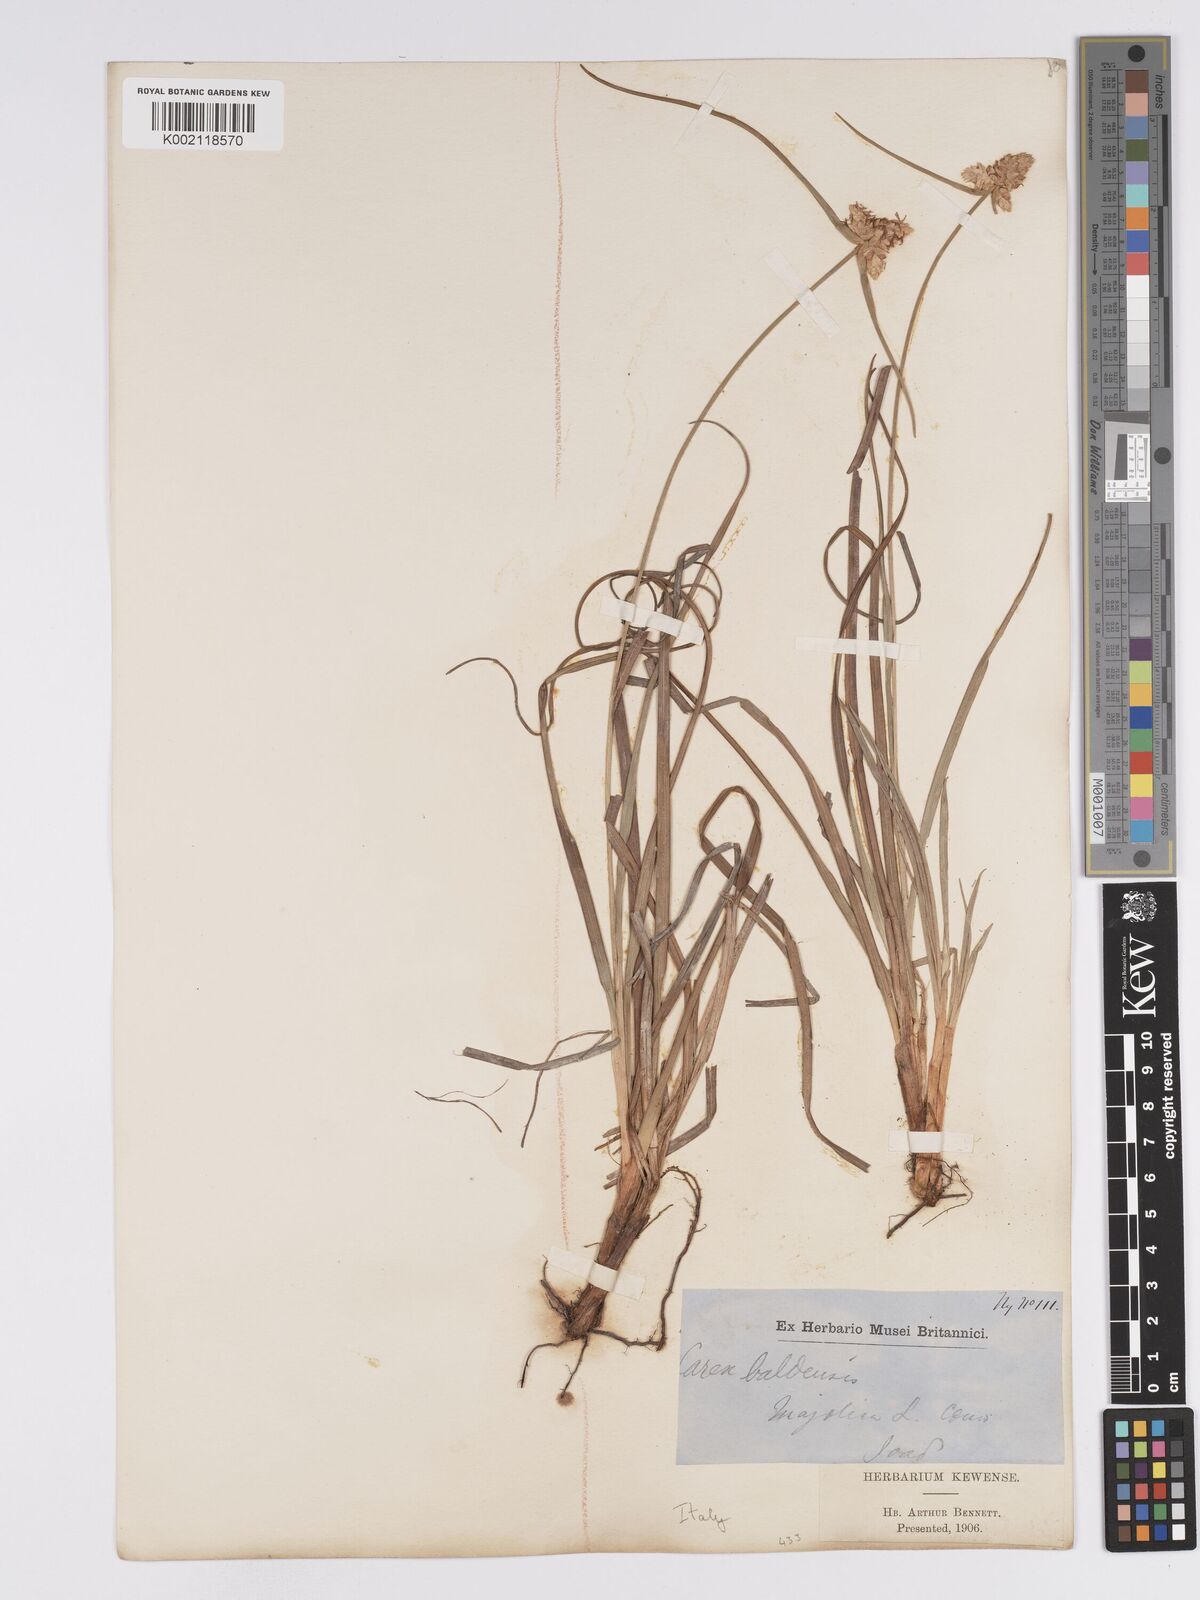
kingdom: Plantae
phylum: Tracheophyta
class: Liliopsida
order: Poales
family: Cyperaceae
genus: Carex
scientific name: Carex baldensis
